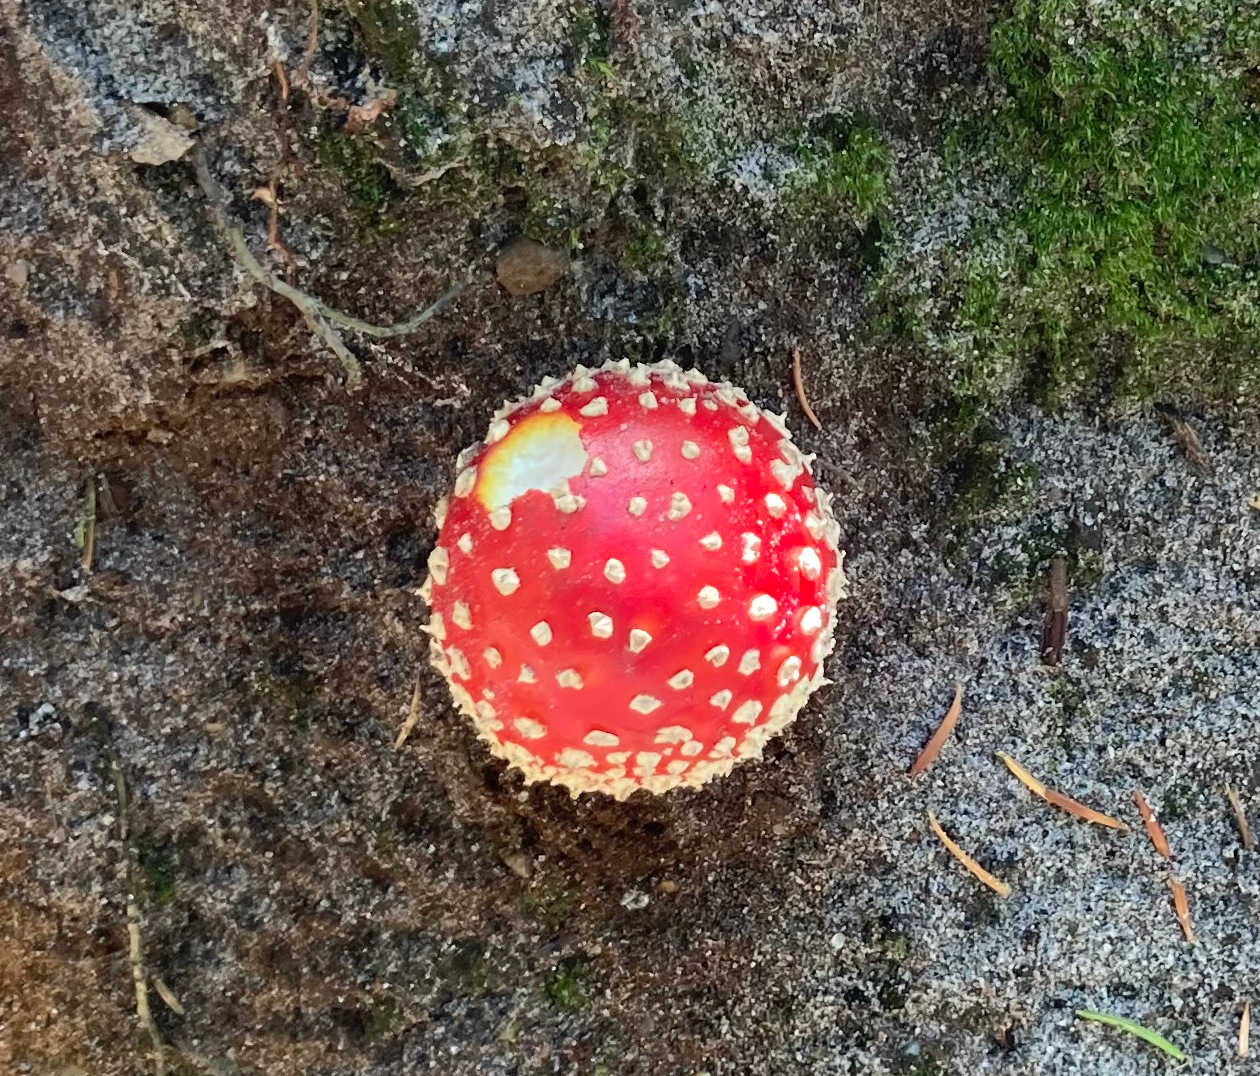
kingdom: Fungi
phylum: Basidiomycota
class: Agaricomycetes
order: Agaricales
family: Amanitaceae
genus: Amanita
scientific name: Amanita muscaria
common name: rød fluesvamp
